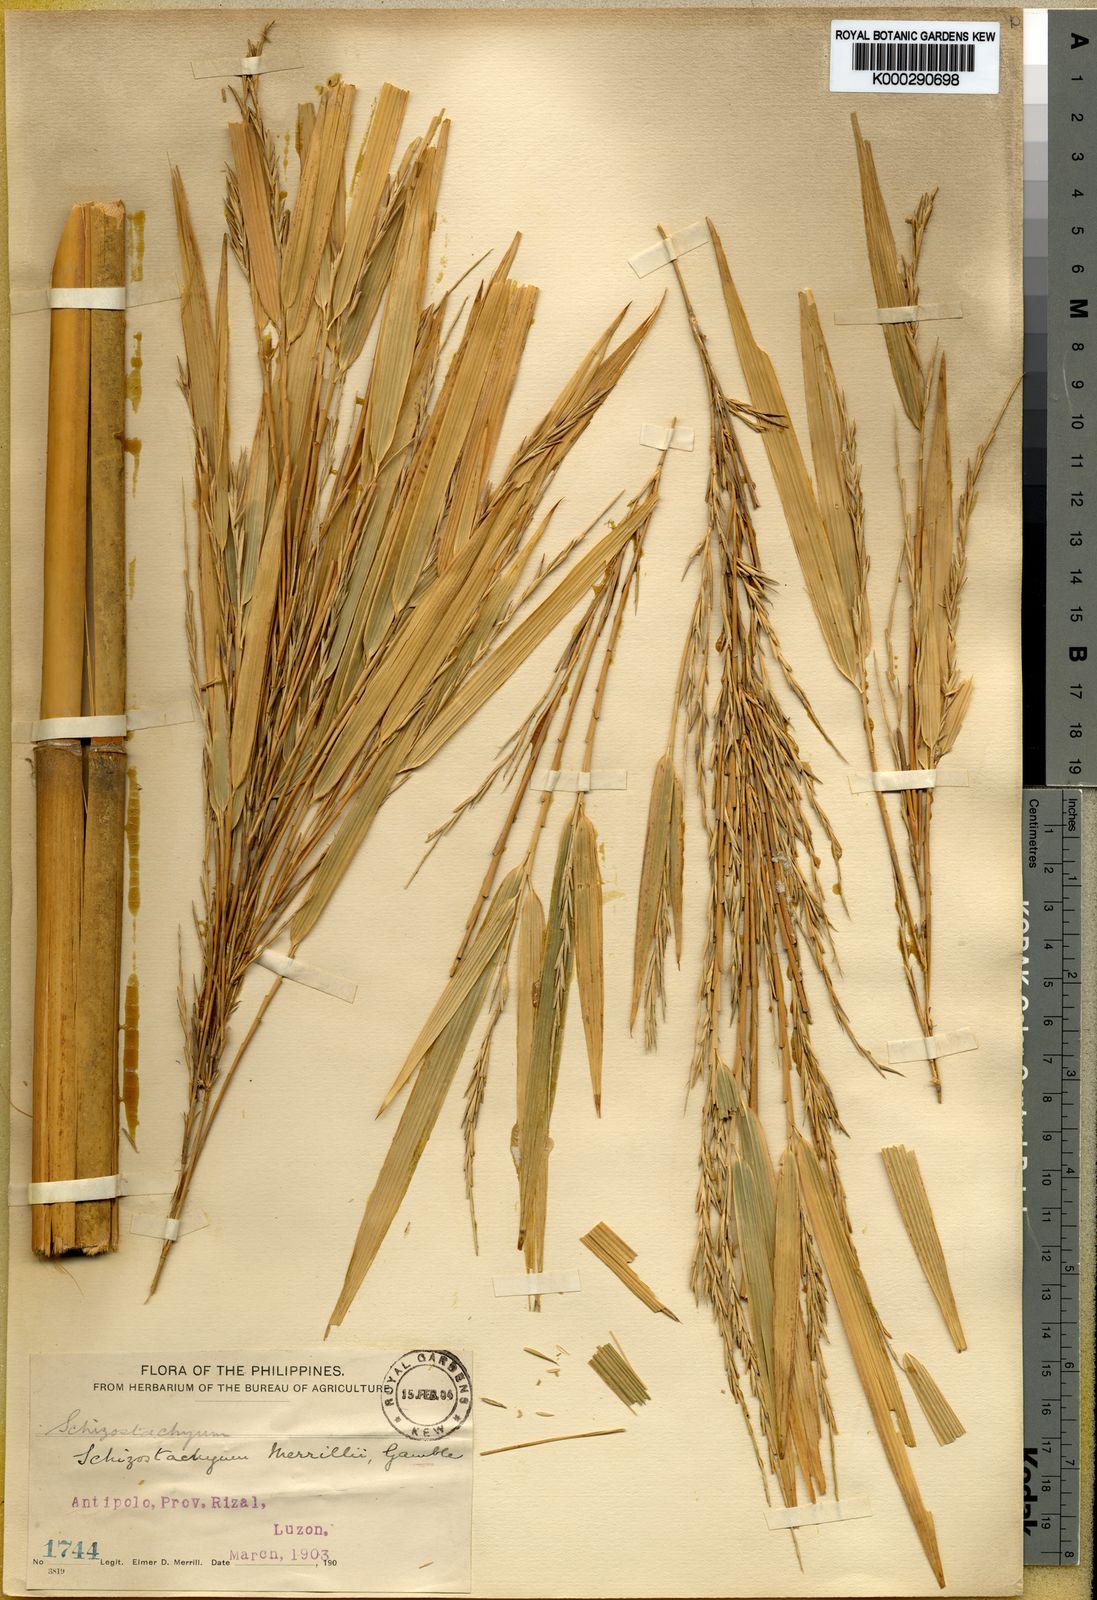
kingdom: Plantae
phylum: Tracheophyta
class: Liliopsida
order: Poales
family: Poaceae
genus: Schizostachyum
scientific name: Schizostachyum textorium
